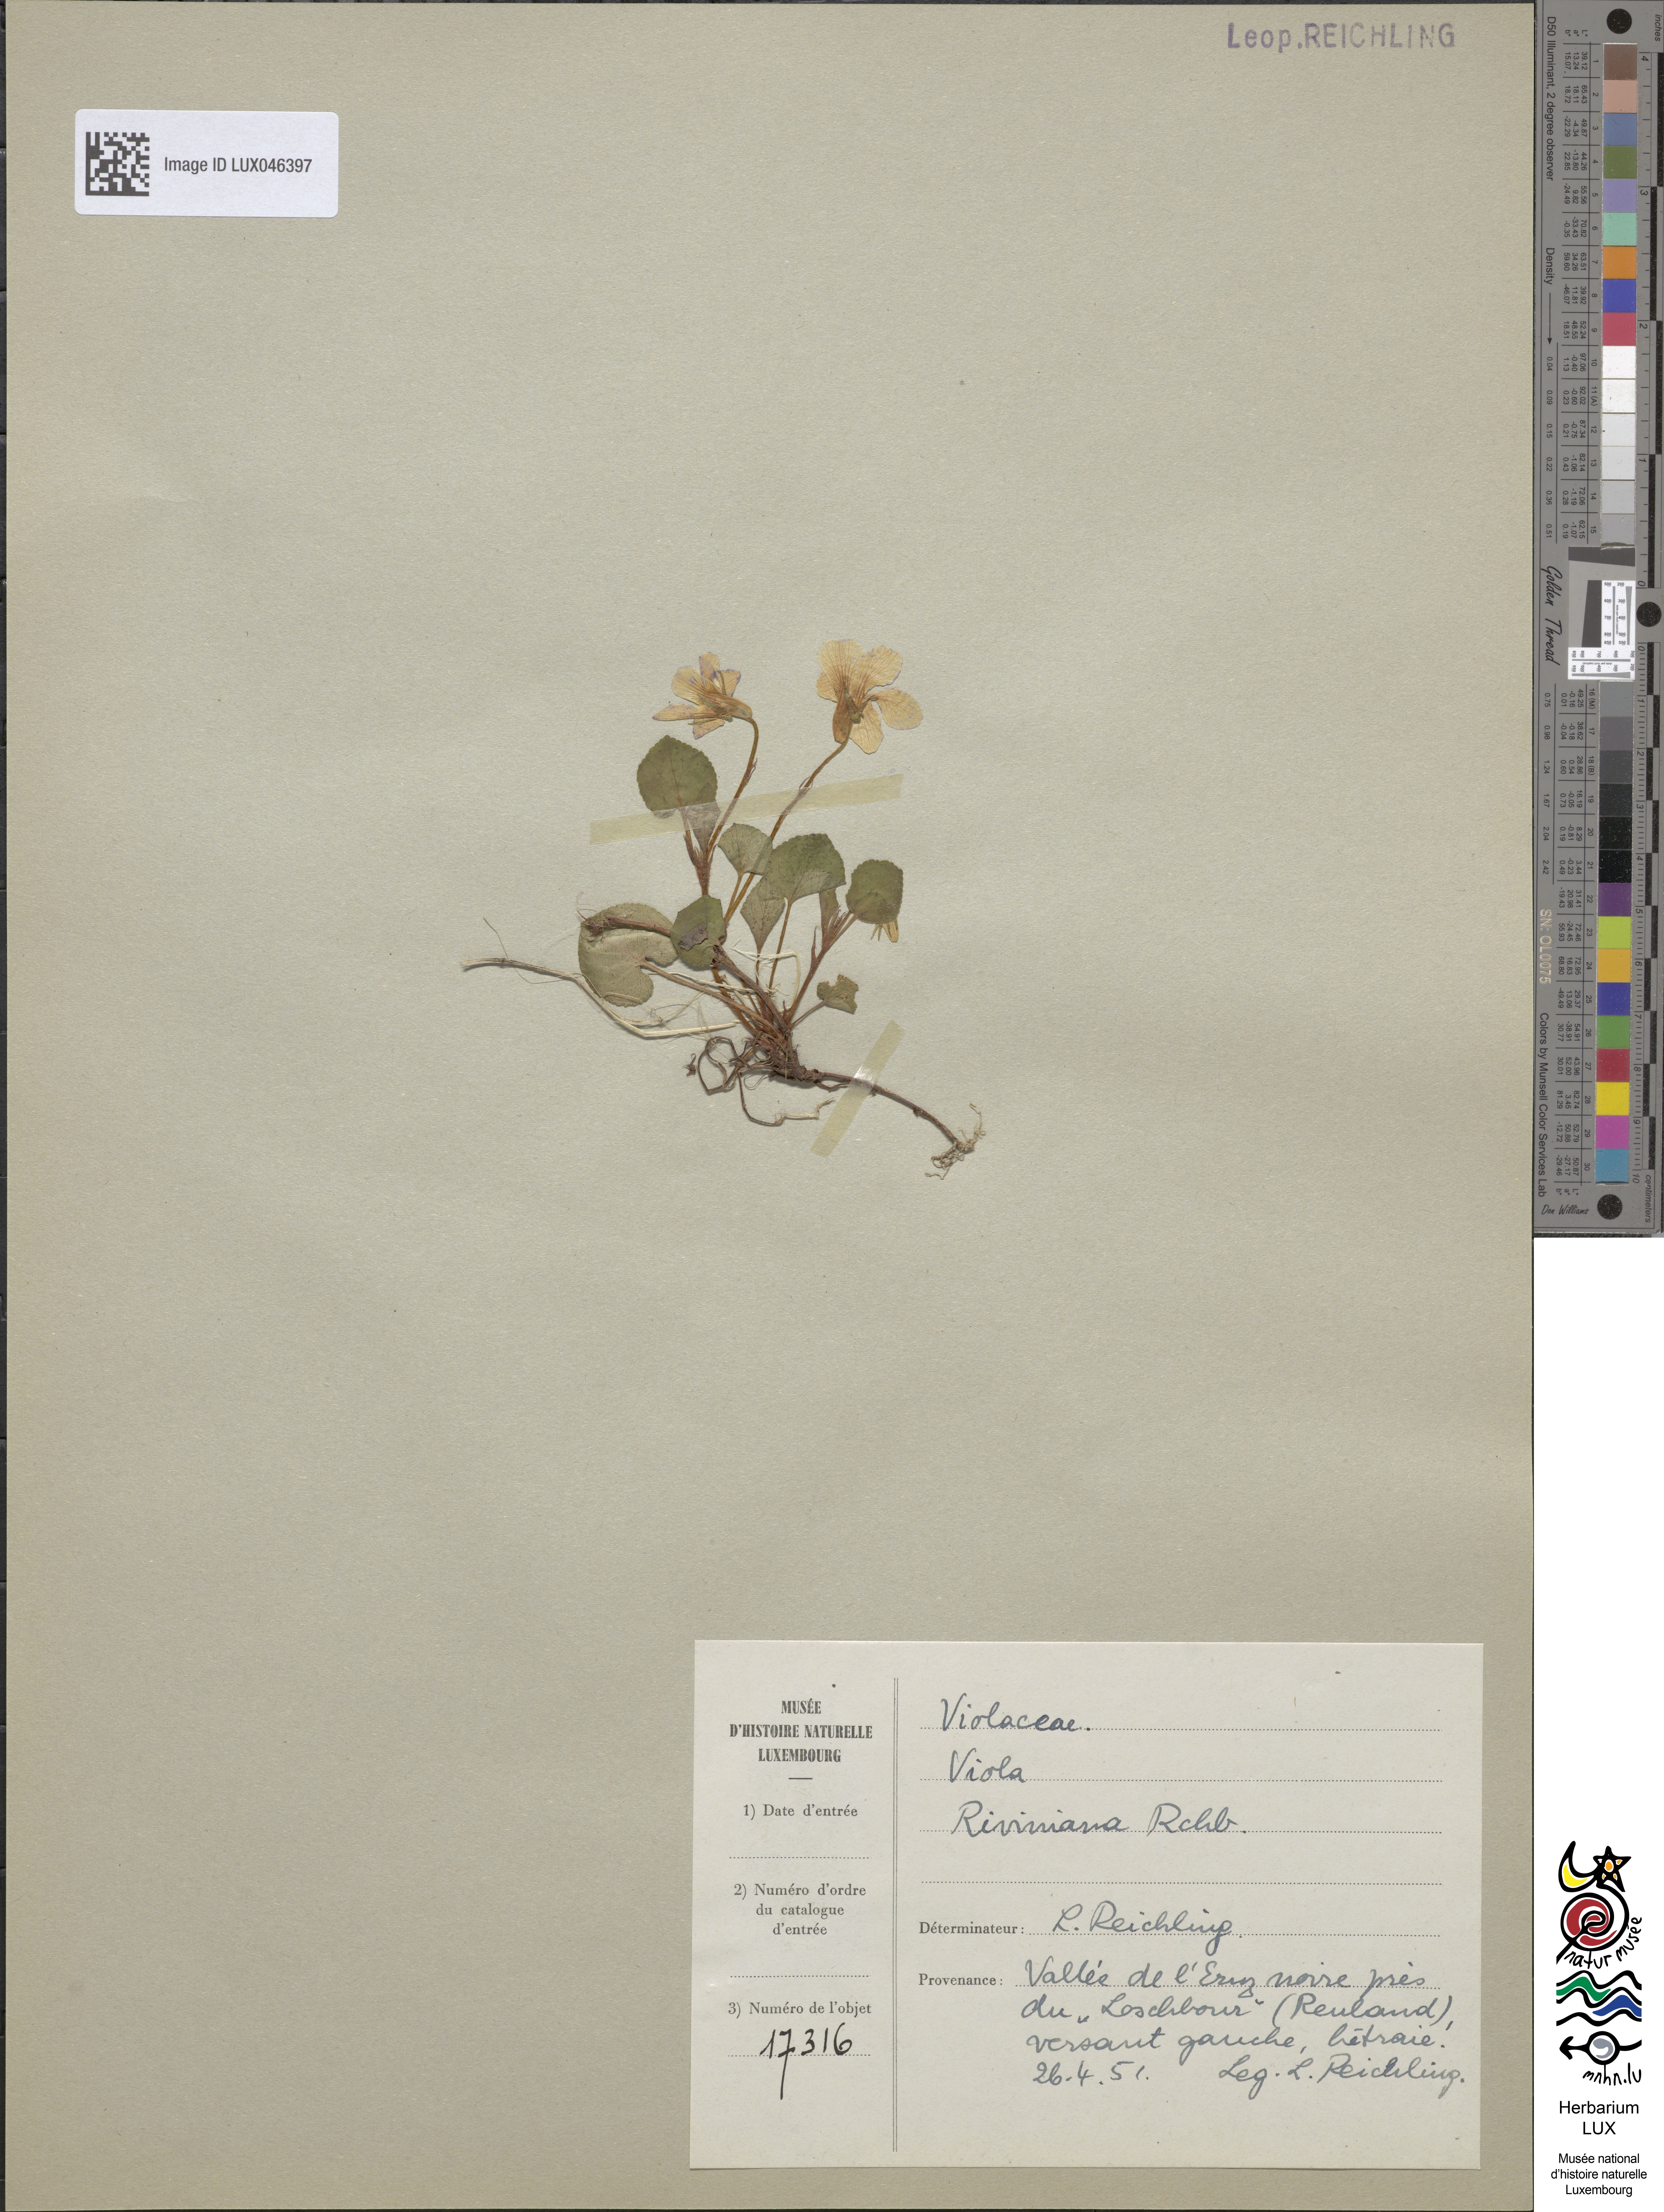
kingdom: Plantae
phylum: Tracheophyta
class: Magnoliopsida
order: Malpighiales
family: Violaceae
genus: Viola
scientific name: Viola riviniana
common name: Common dog-violet
